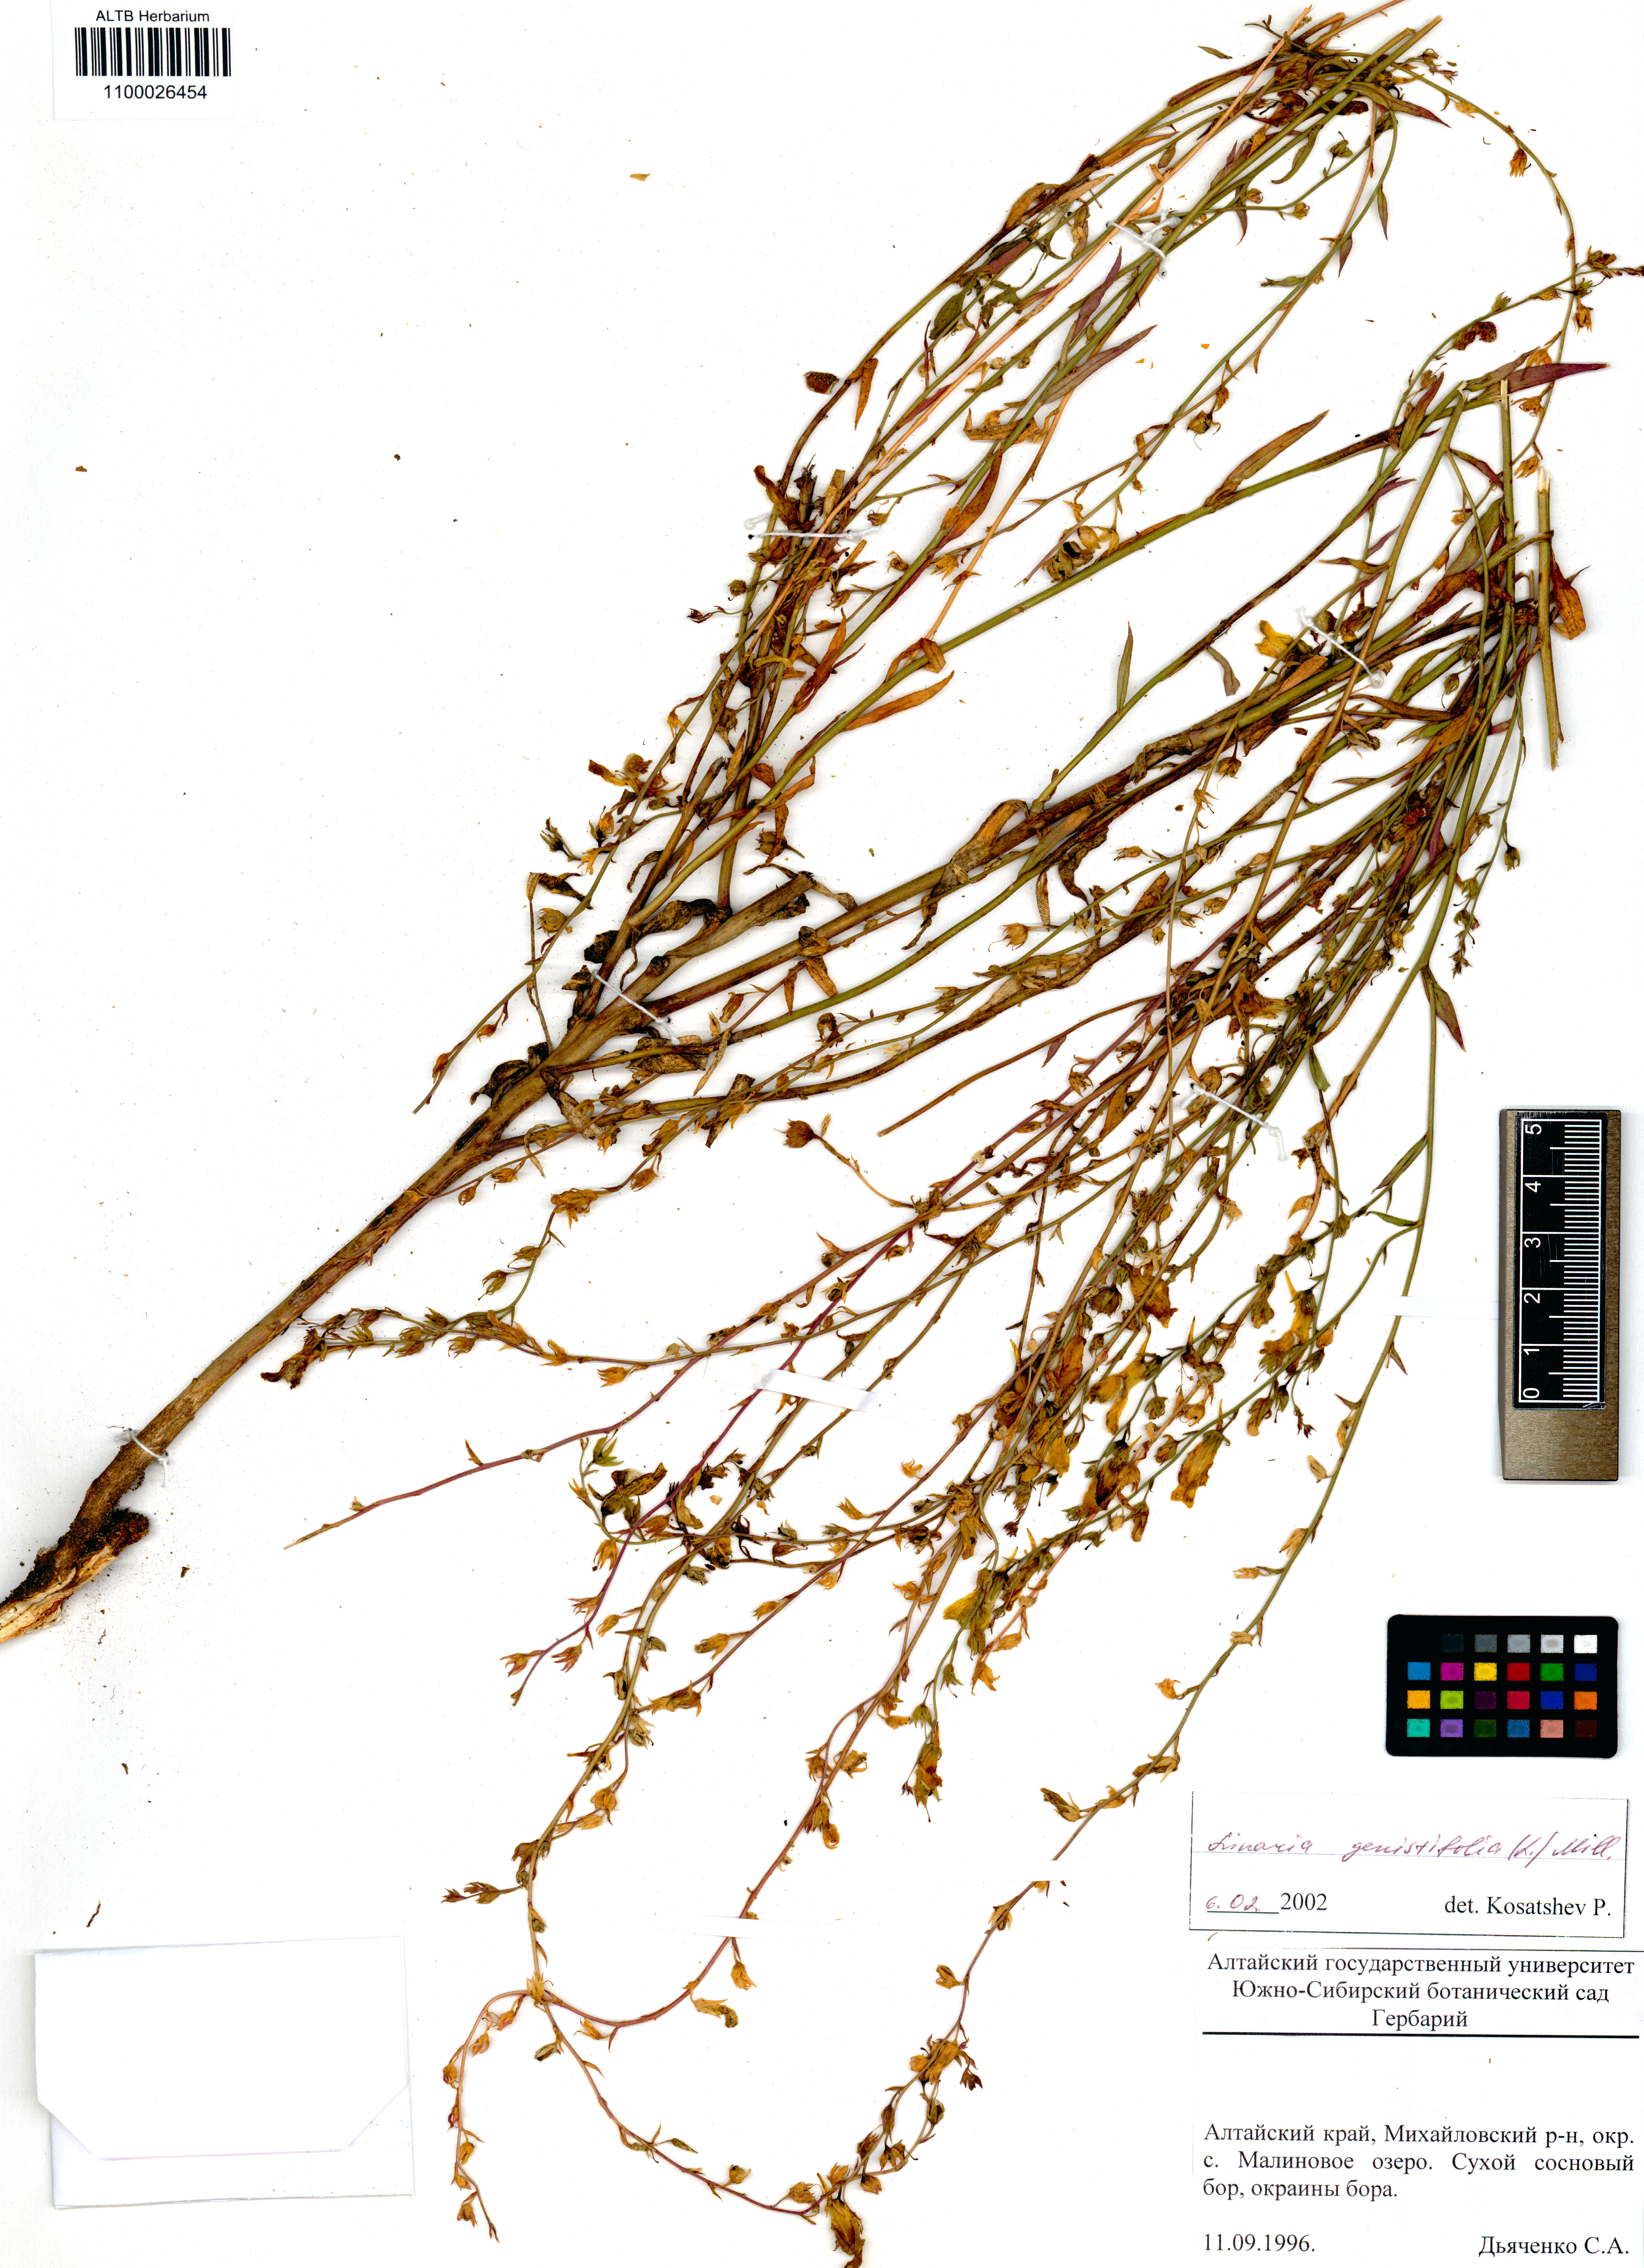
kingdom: Plantae
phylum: Tracheophyta
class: Magnoliopsida
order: Lamiales
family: Plantaginaceae
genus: Linaria
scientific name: Linaria genistifolia
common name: Broomleaf toadflax
